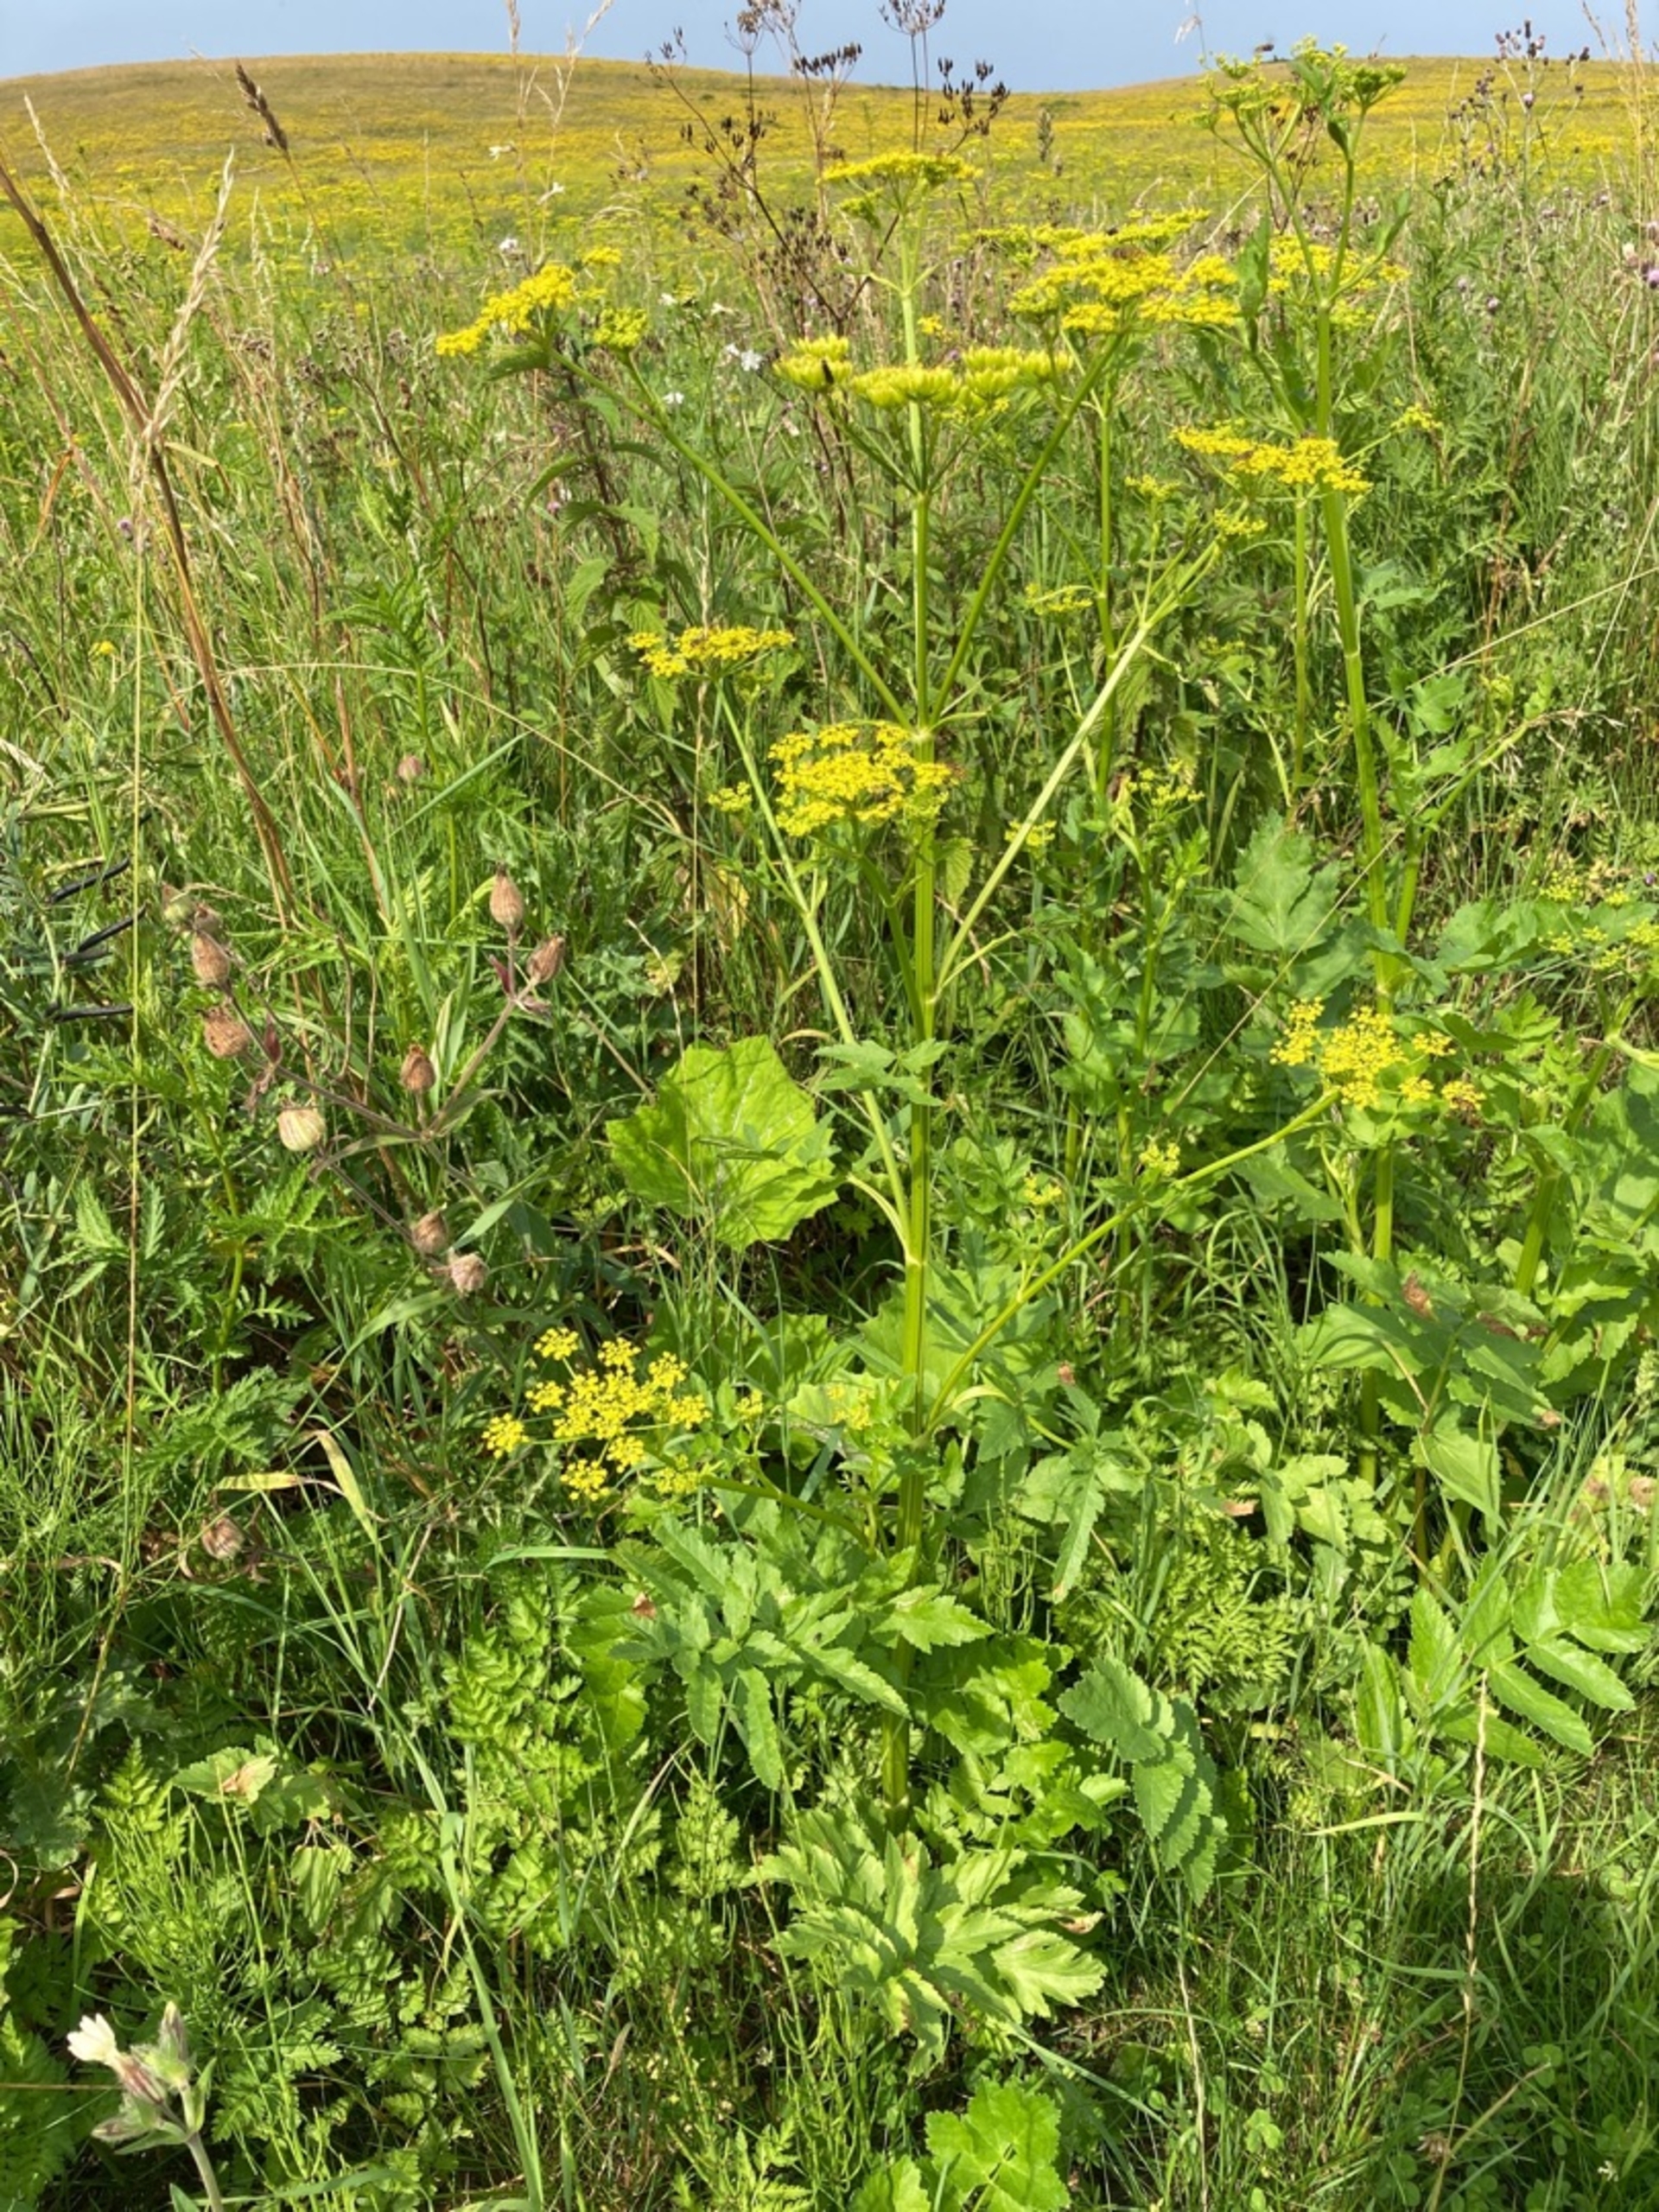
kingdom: Plantae
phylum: Tracheophyta
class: Magnoliopsida
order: Apiales
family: Apiaceae
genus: Pastinaca
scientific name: Pastinaca sativa
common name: Have-pastinak
